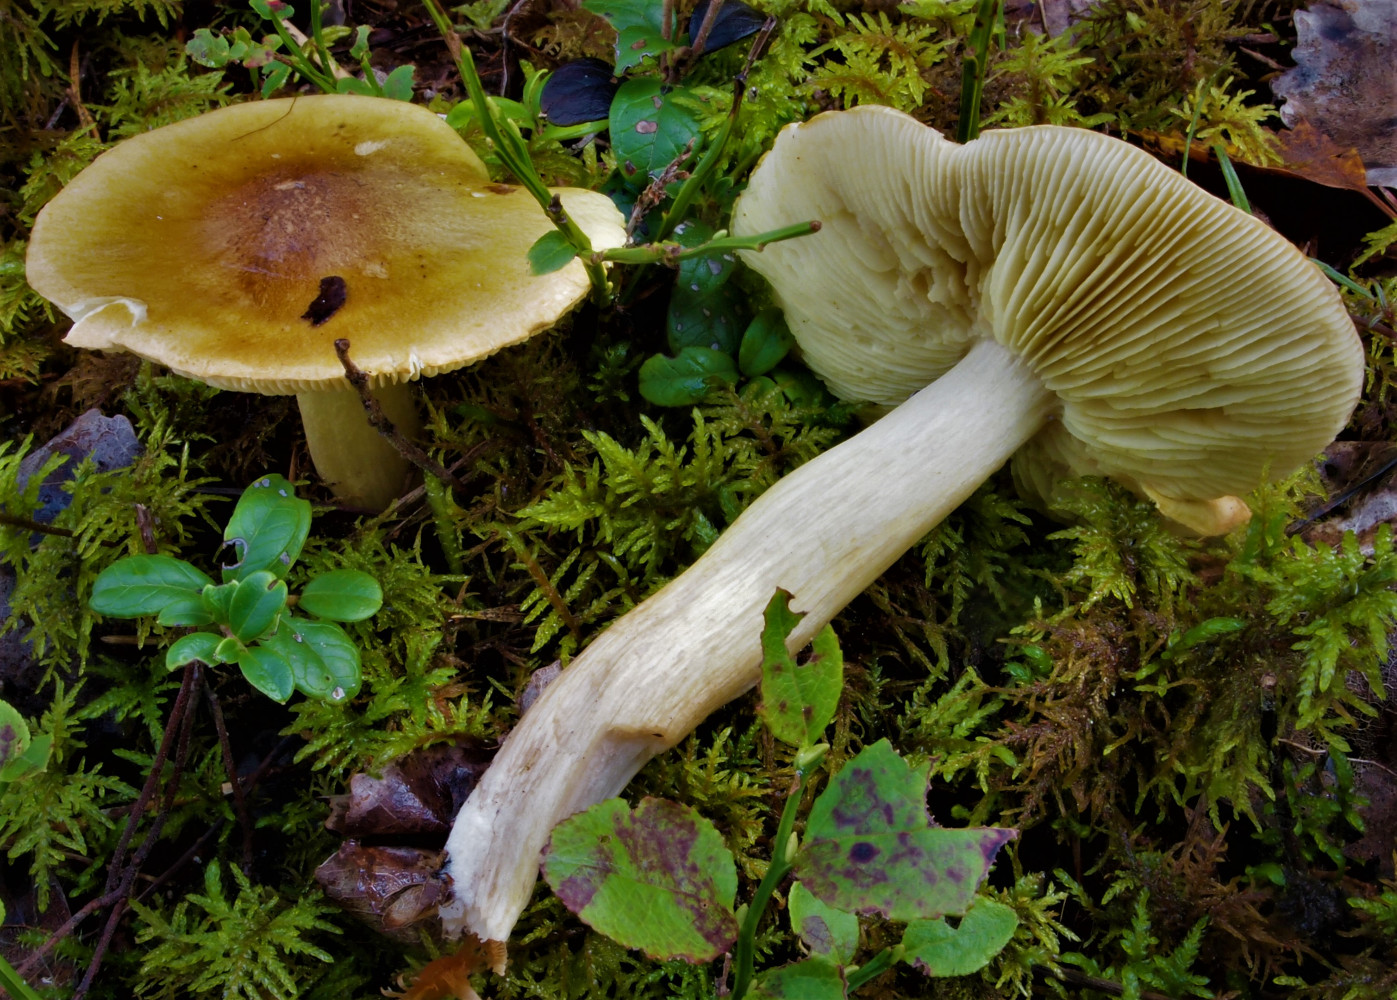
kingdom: Fungi
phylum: Basidiomycota
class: Agaricomycetes
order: Agaricales
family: Tricholomataceae
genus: Tricholoma
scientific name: Tricholoma aestuans
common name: kegle-ridderhat
